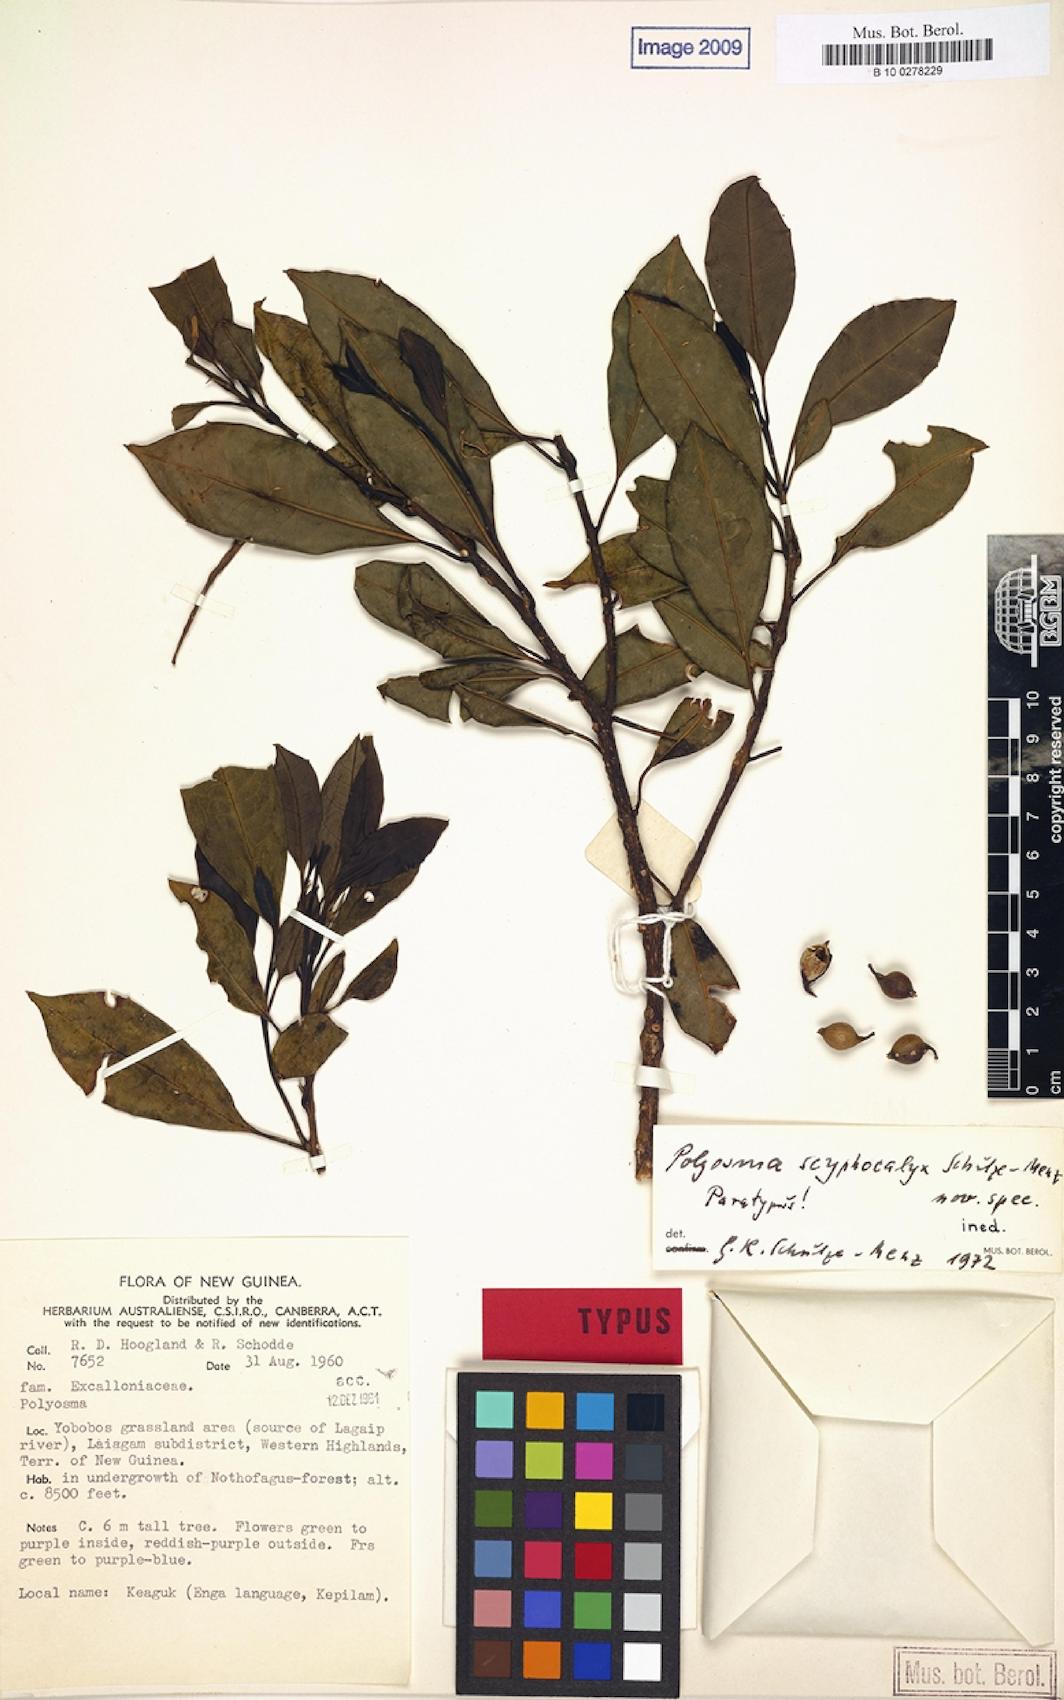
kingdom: Plantae
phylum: Tracheophyta
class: Magnoliopsida
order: Escalloniales
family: Escalloniaceae
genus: Polyosma
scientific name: Polyosma
